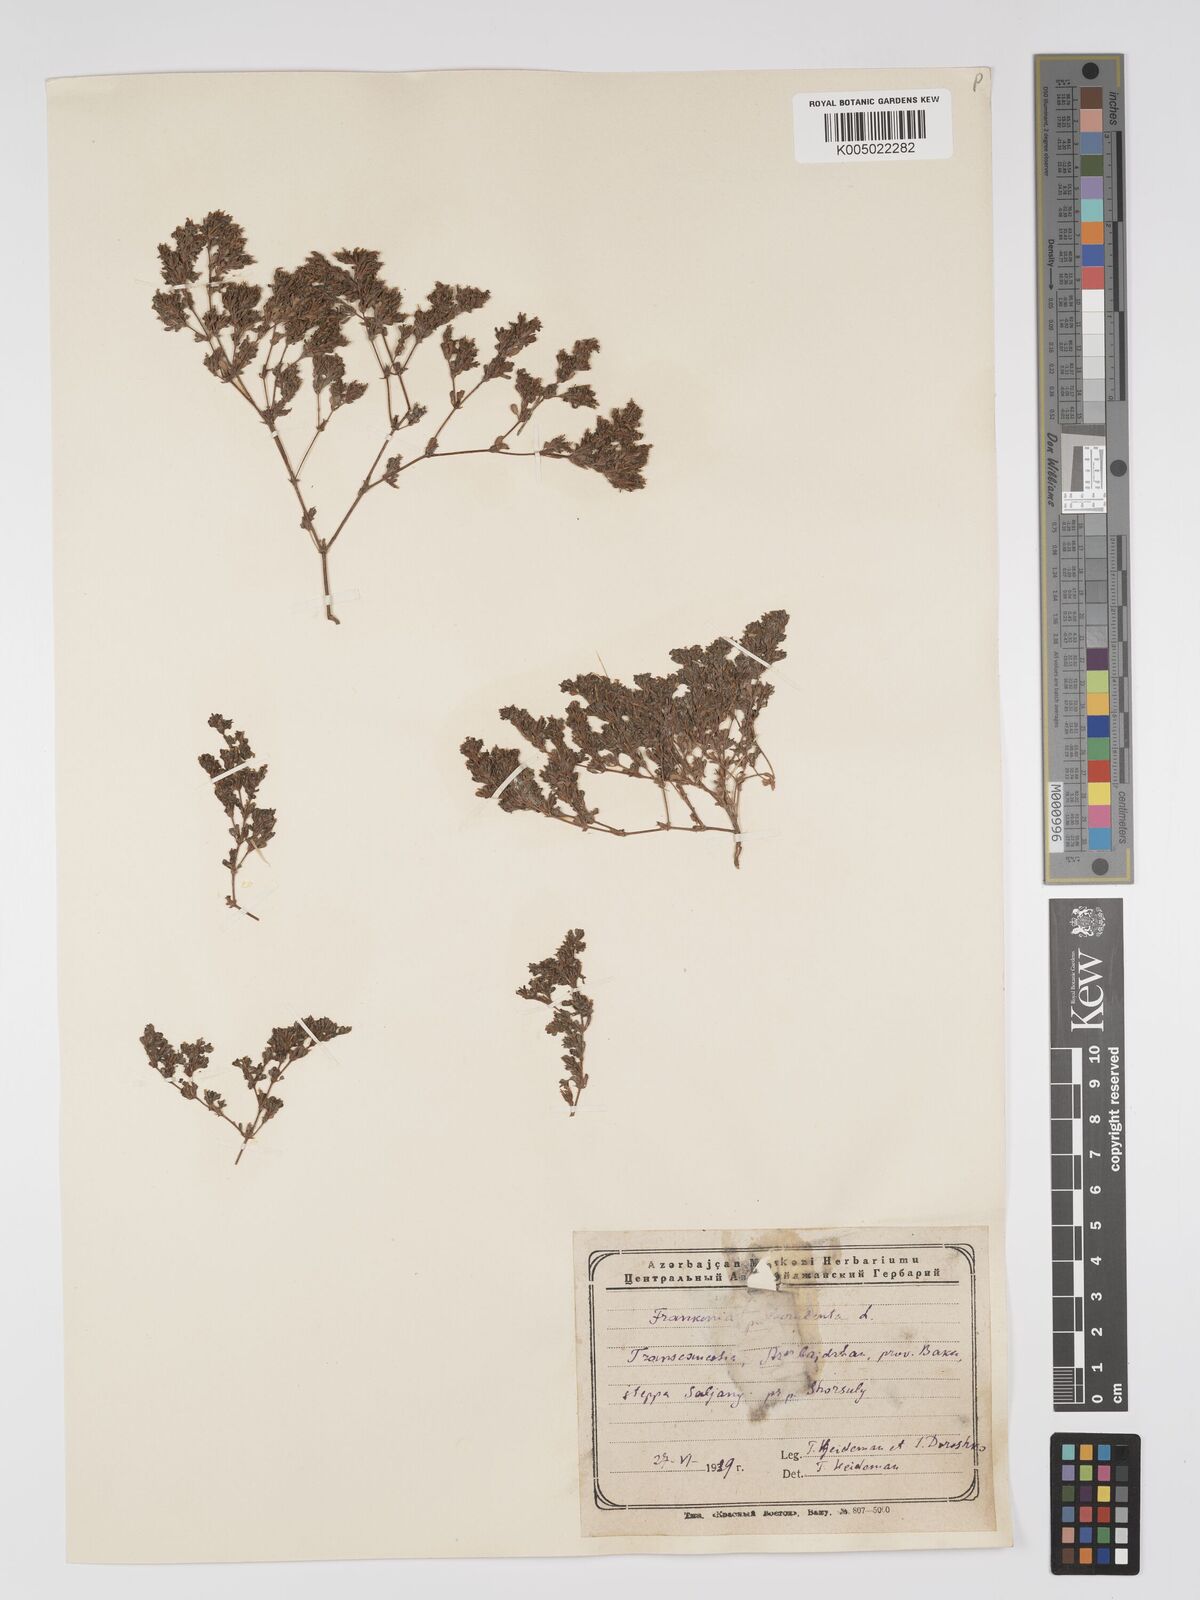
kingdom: Plantae
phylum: Tracheophyta
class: Magnoliopsida
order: Caryophyllales
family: Frankeniaceae
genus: Frankenia
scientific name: Frankenia pulverulenta
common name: European seaheath
